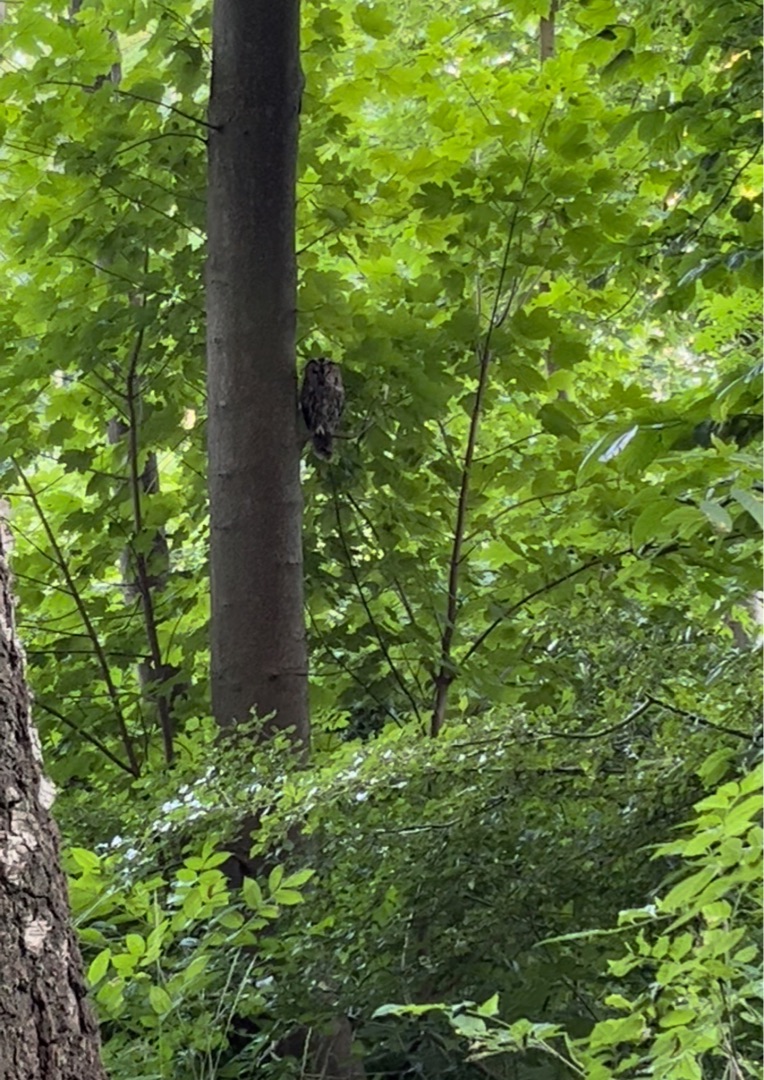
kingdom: Animalia
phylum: Chordata
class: Aves
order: Strigiformes
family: Strigidae
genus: Strix
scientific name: Strix aluco
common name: Natugle
